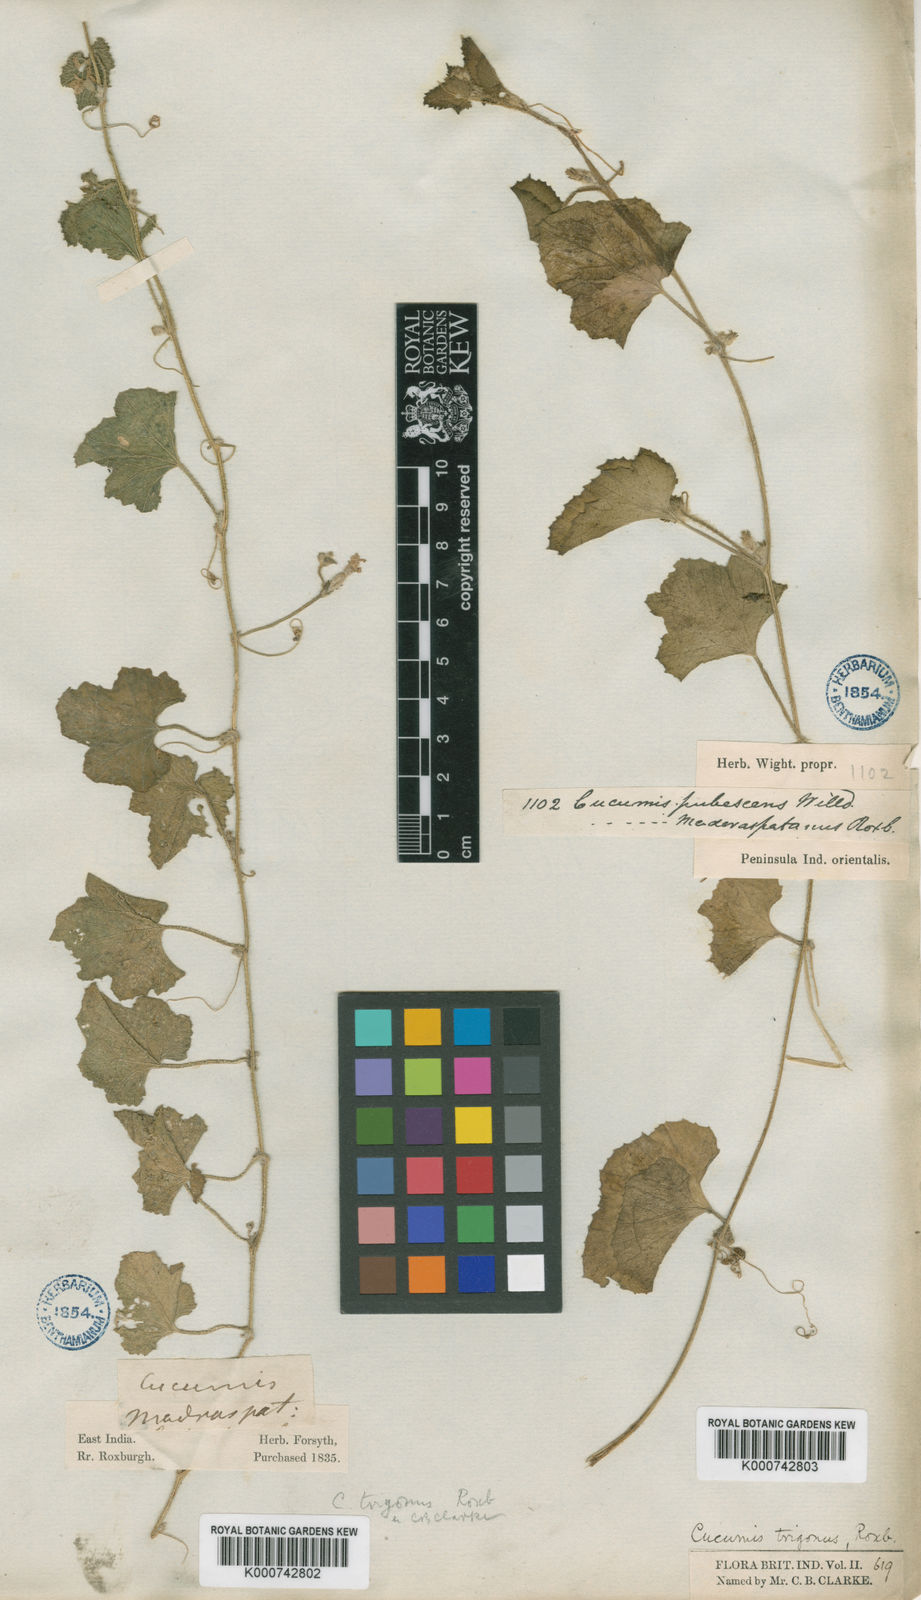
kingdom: Plantae
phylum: Tracheophyta
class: Magnoliopsida
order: Cucurbitales
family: Cucurbitaceae
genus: Cucumis
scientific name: Cucumis melo
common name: Melon
